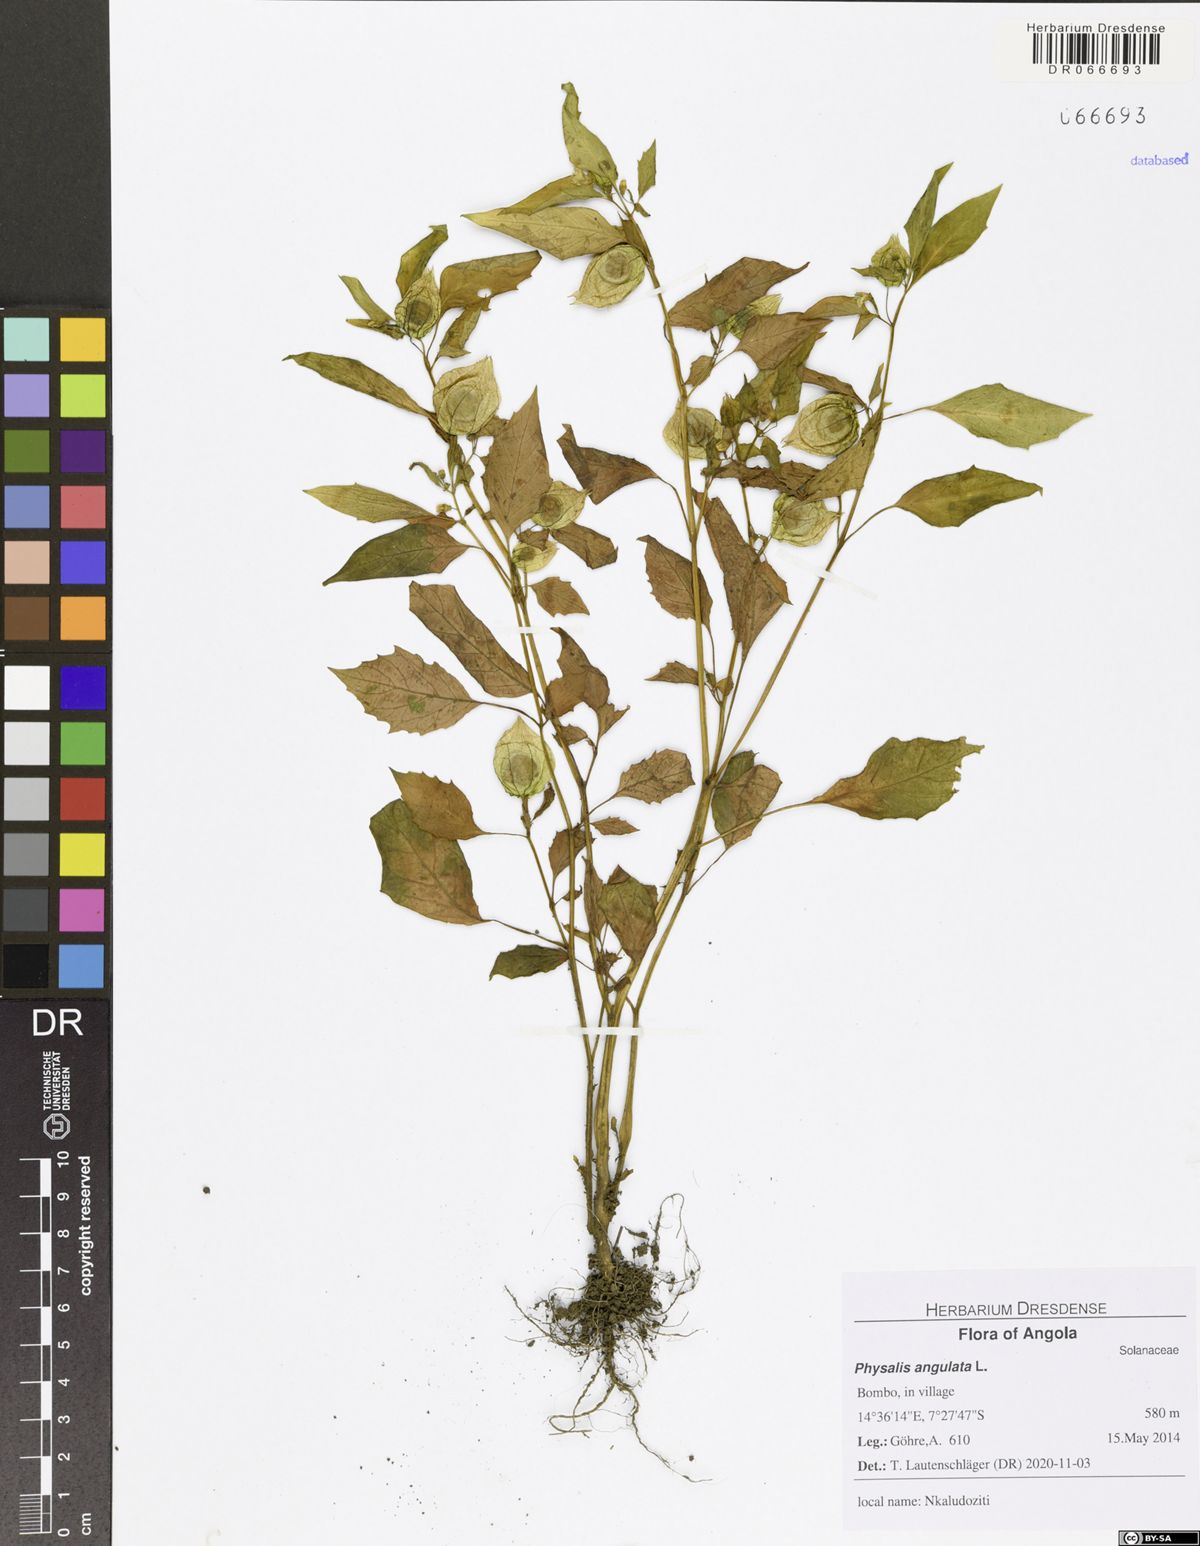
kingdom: Plantae
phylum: Tracheophyta
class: Magnoliopsida
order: Solanales
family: Solanaceae
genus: Physalis
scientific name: Physalis angulata
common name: Angular winter-cherry
